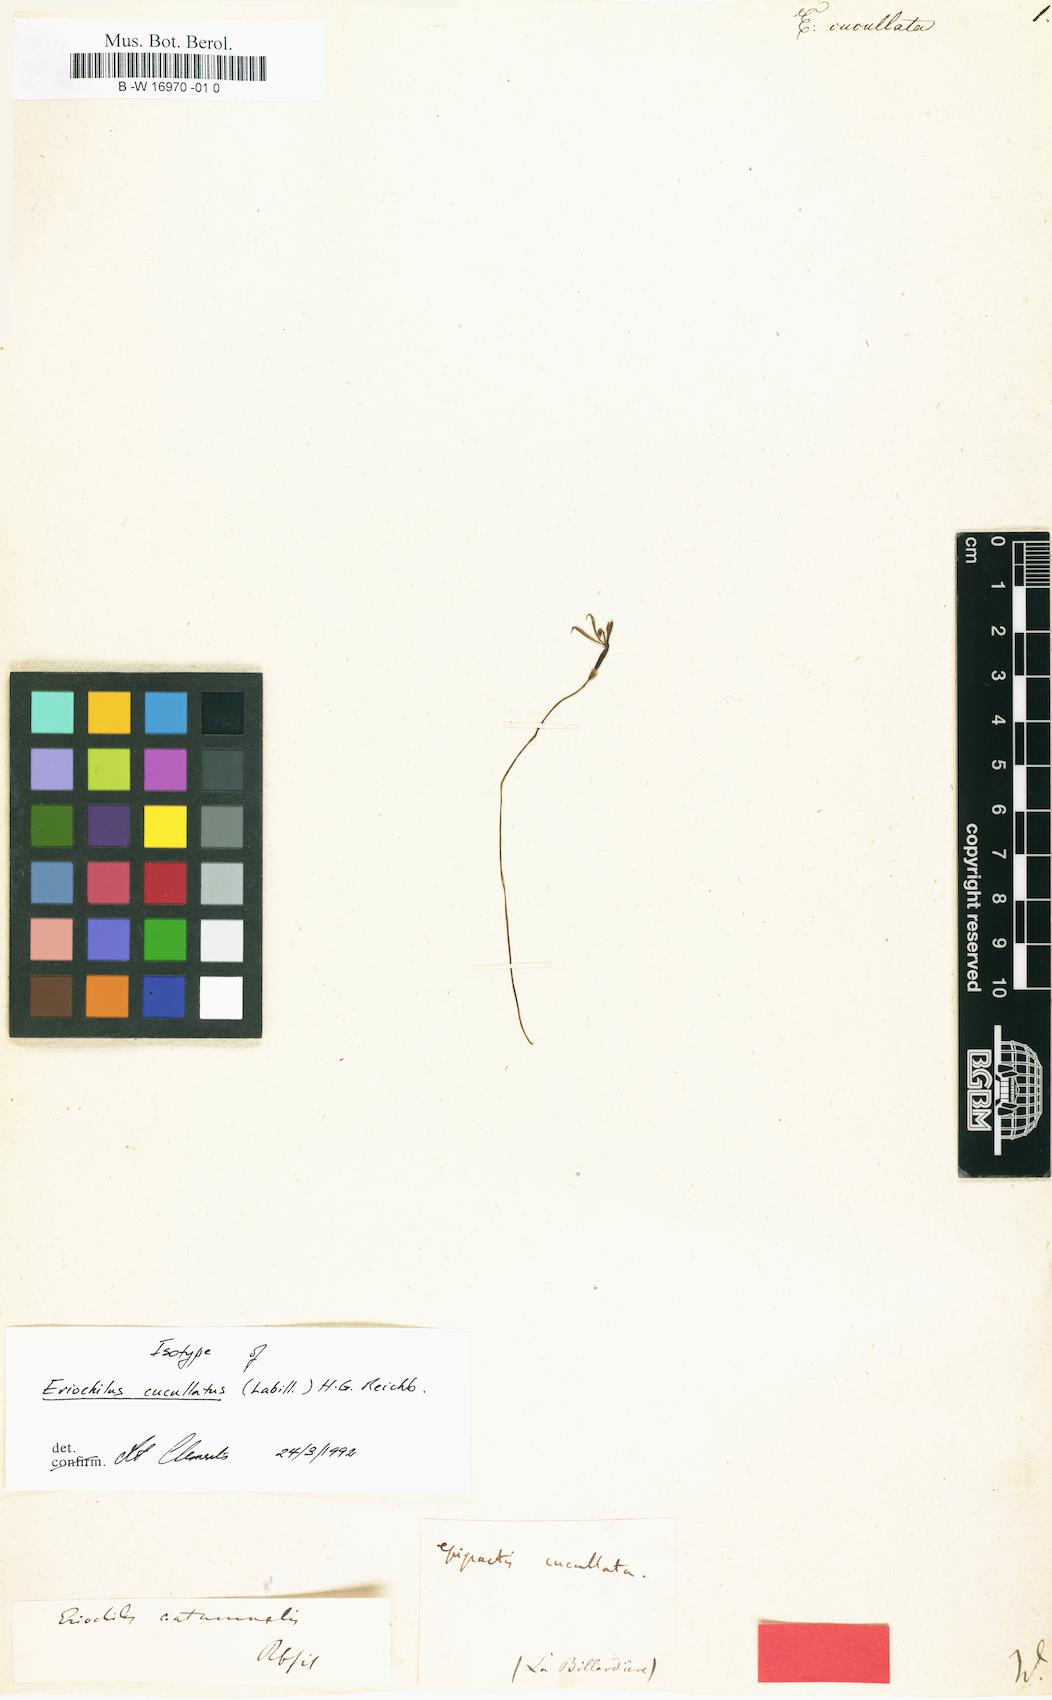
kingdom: Plantae
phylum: Tracheophyta
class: Liliopsida
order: Asparagales
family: Orchidaceae
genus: Eriochilus
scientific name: Eriochilus cucullatus
